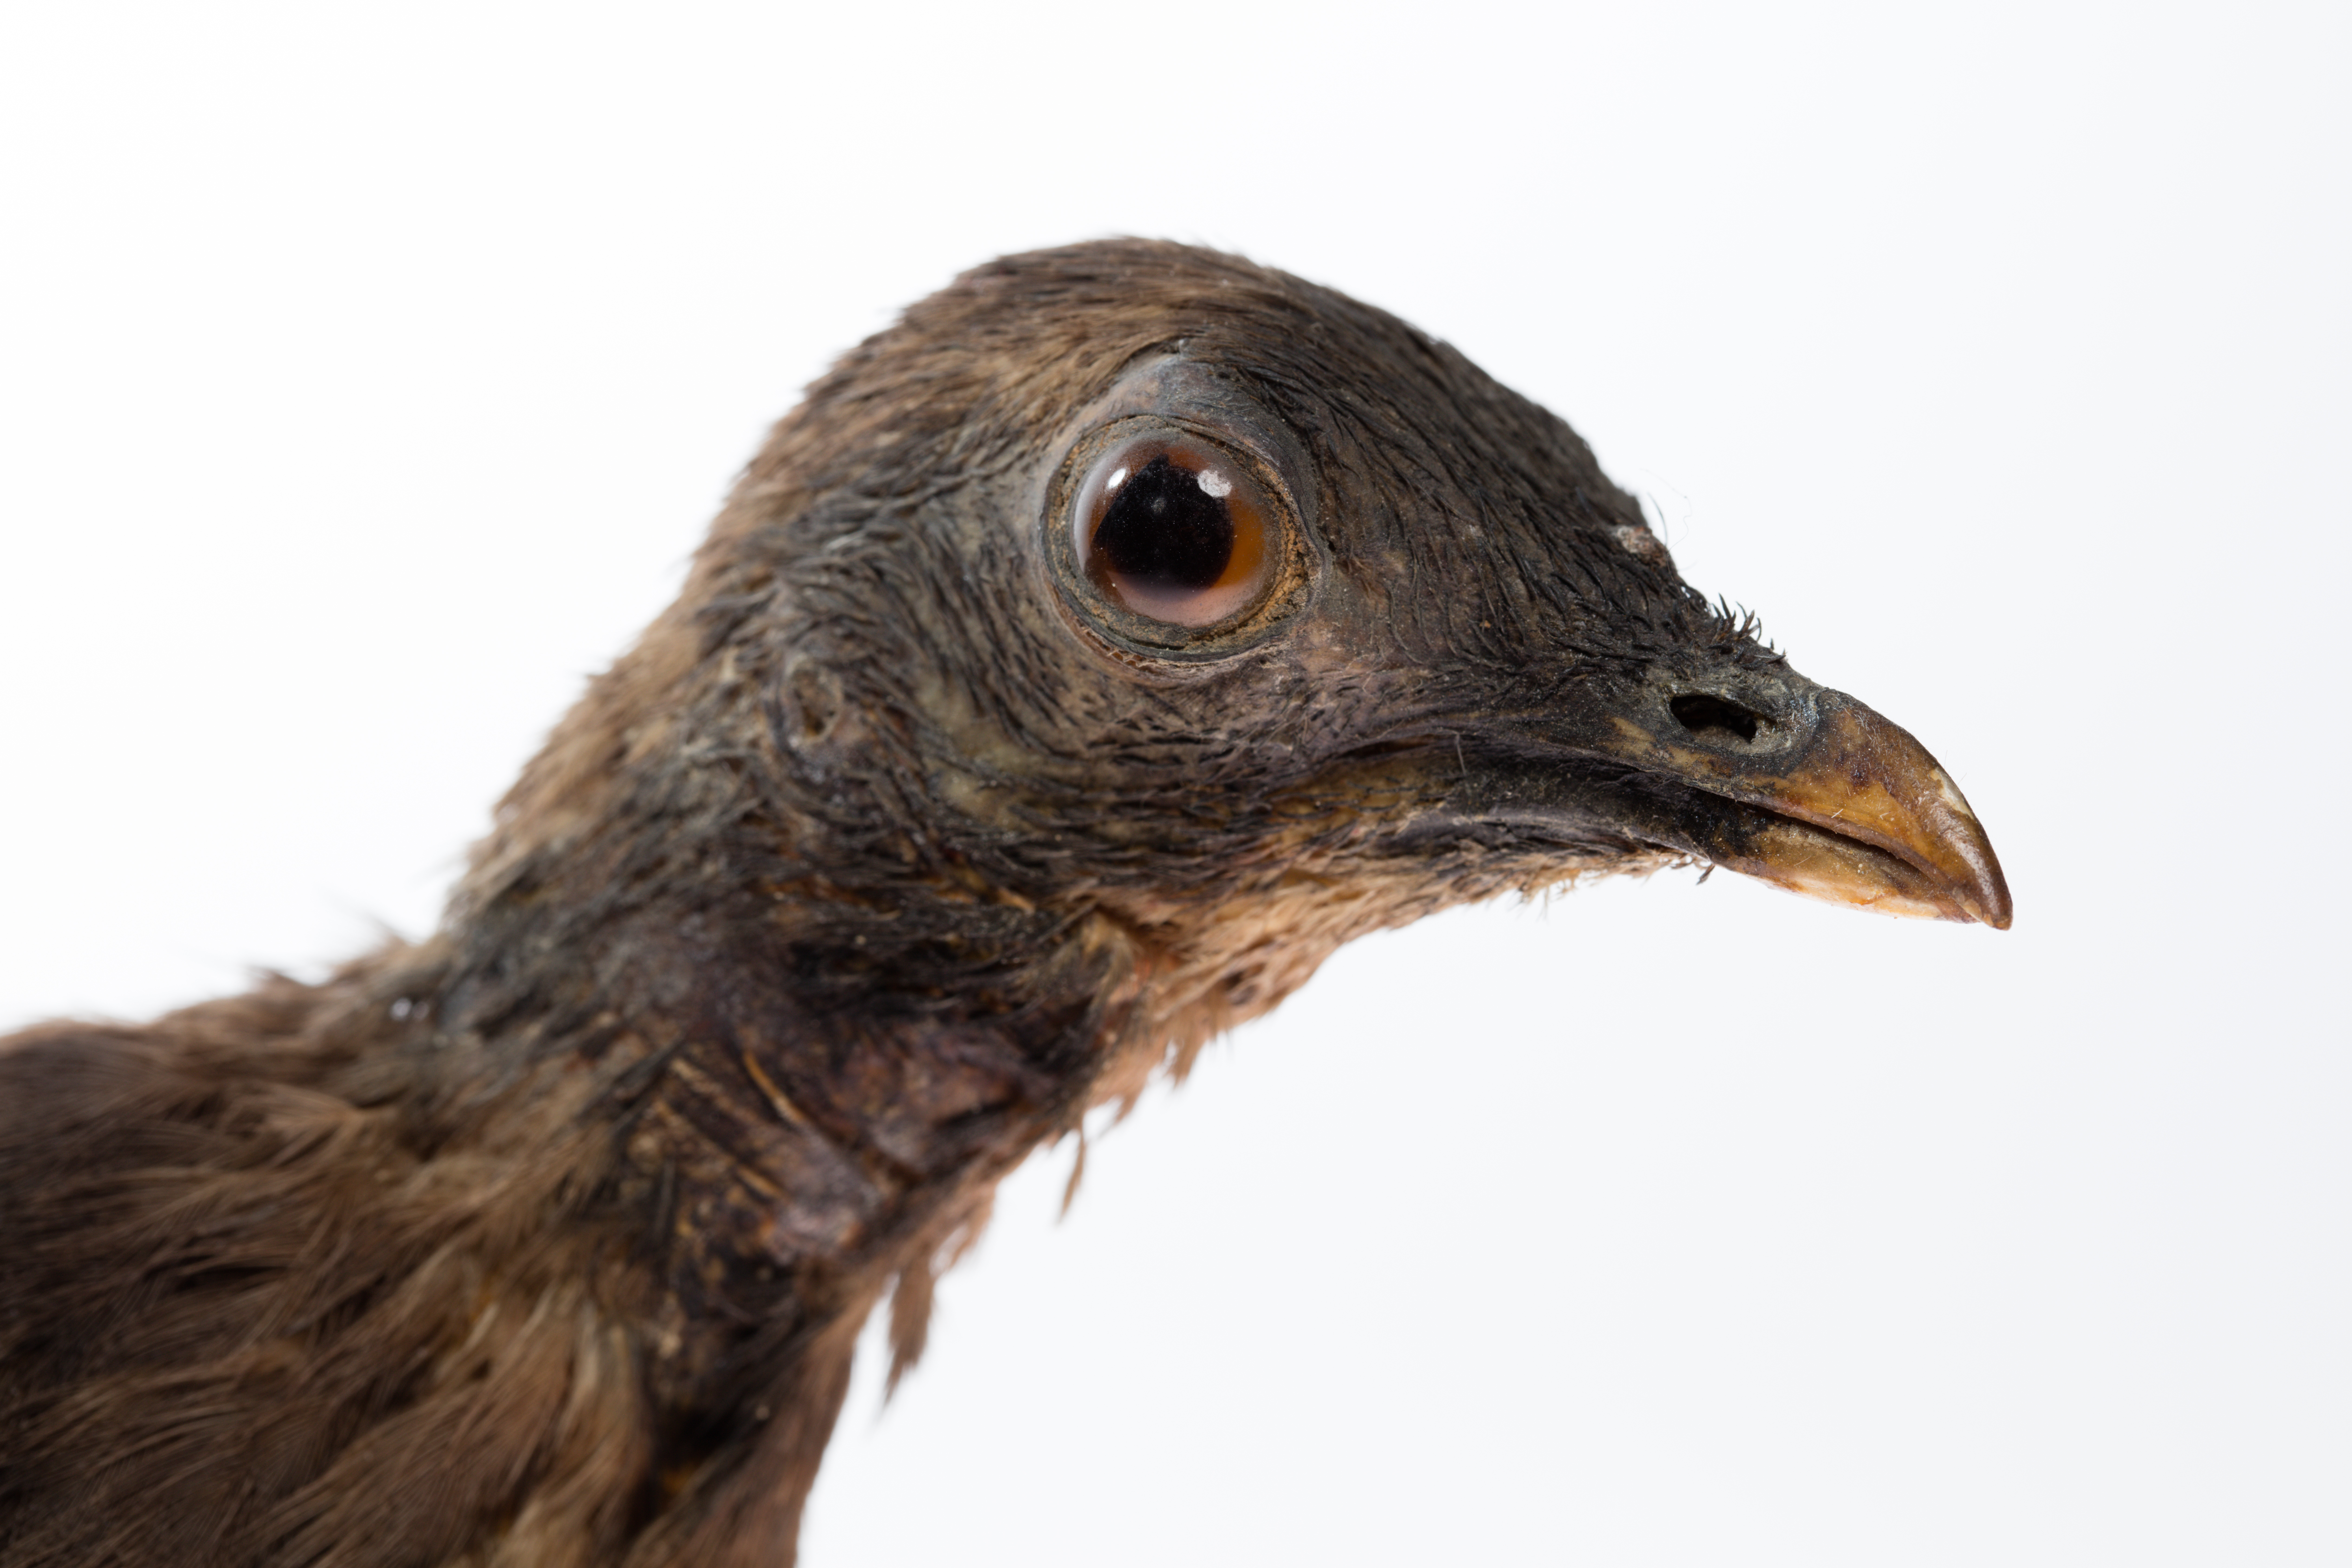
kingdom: Animalia
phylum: Chordata
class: Aves
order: Galliformes
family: Megapodiidae
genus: Megapodius
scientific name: Megapodius eremita
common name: Melanesian megapode
